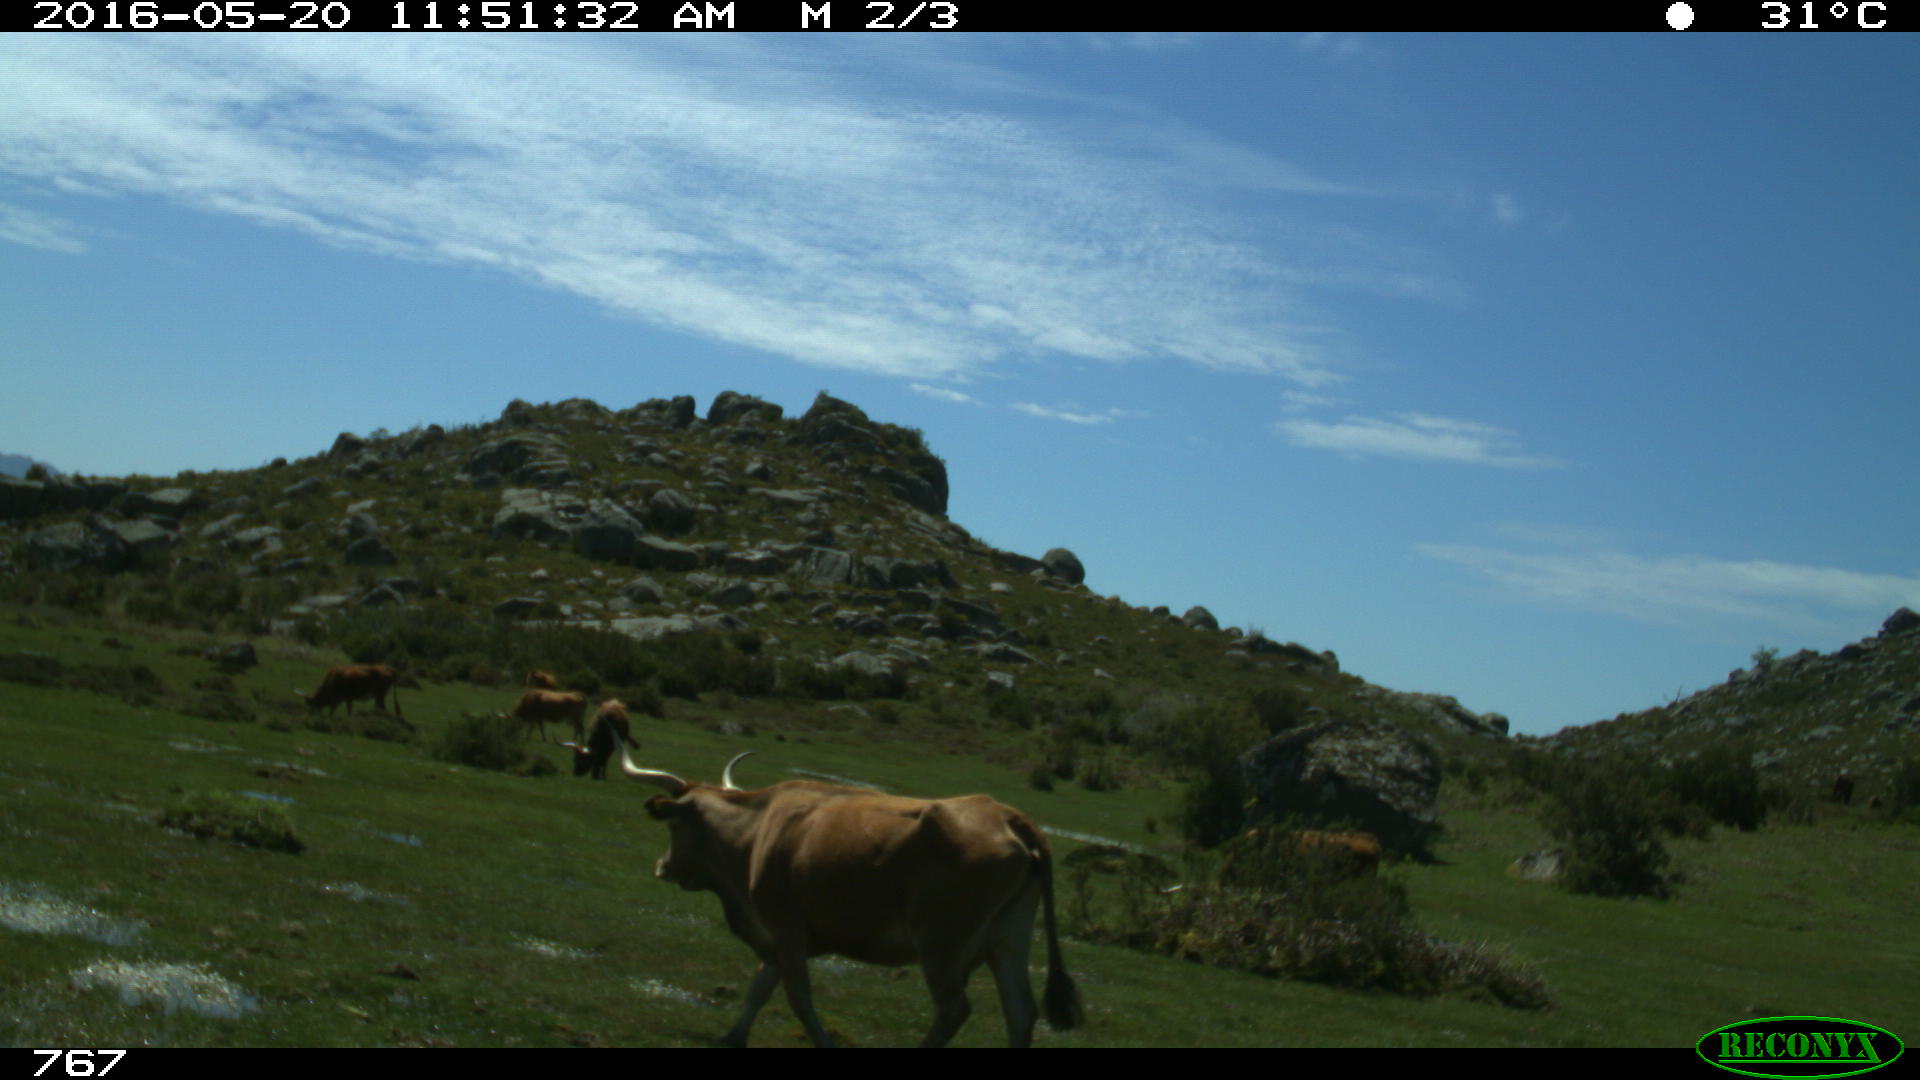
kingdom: Animalia
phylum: Chordata
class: Mammalia
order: Artiodactyla
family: Bovidae
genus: Bos
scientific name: Bos taurus
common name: Domesticated cattle
